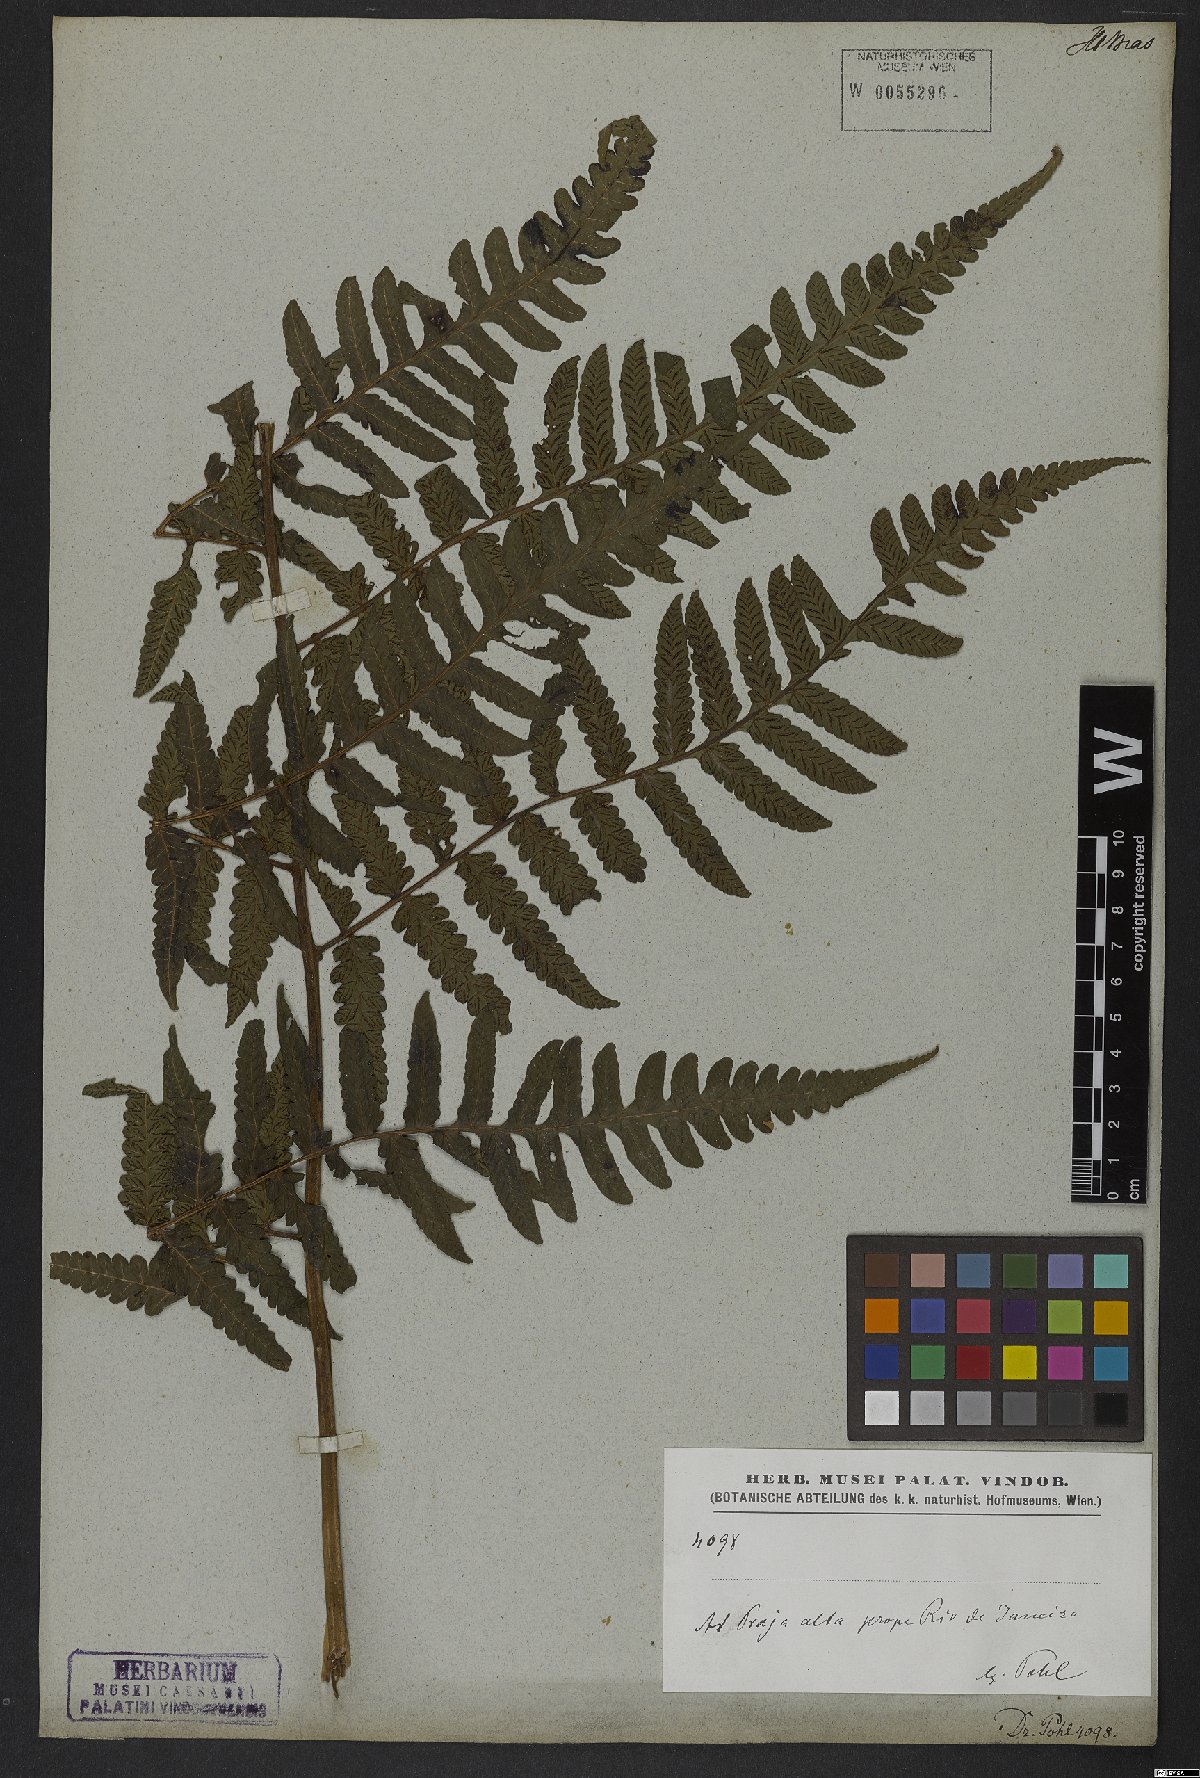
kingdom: Plantae
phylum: Tracheophyta
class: Polypodiopsida
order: Polypodiales
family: Athyriaceae
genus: Diplazium
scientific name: Diplazium
